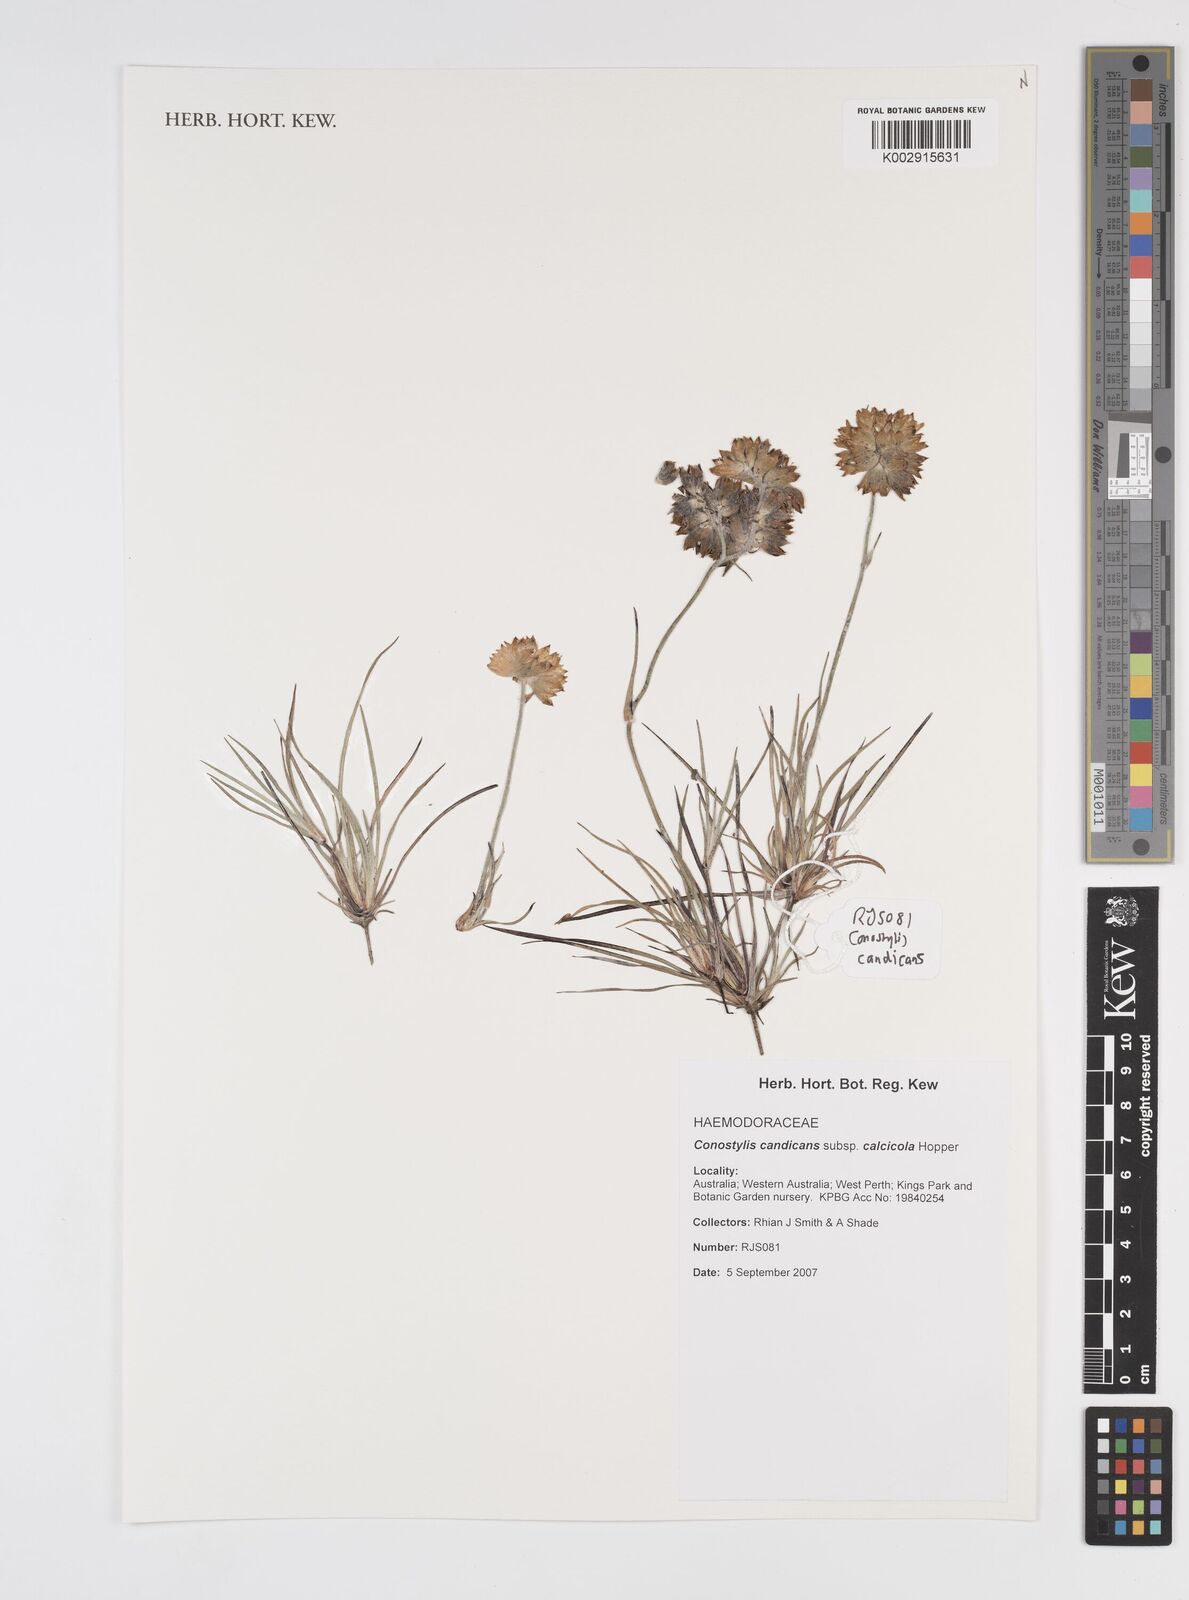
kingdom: Plantae
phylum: Tracheophyta
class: Liliopsida
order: Commelinales
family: Haemodoraceae
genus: Conostylis
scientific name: Conostylis candicans
